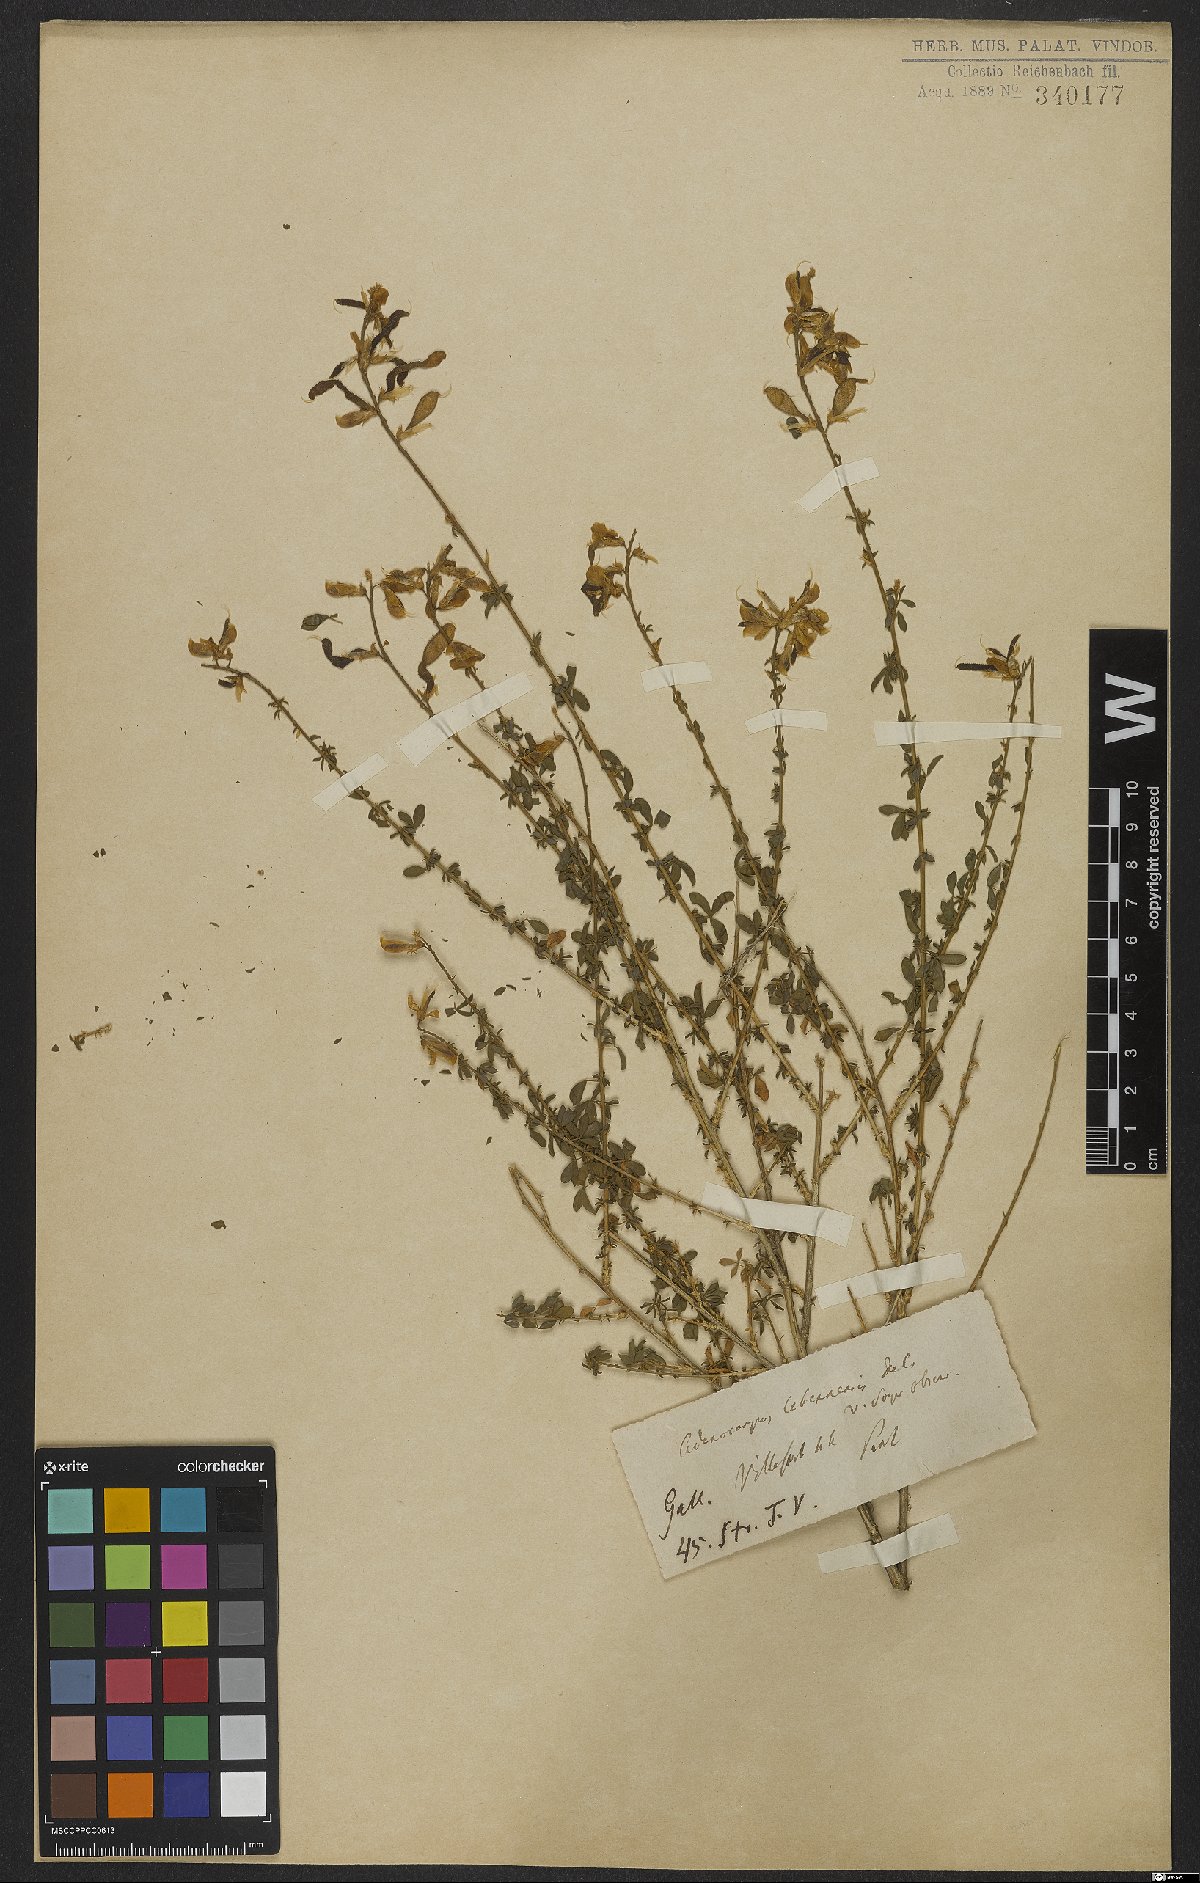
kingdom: Plantae
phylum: Tracheophyta
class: Magnoliopsida
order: Fabales
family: Fabaceae
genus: Adenocarpus
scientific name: Adenocarpus complicatus
